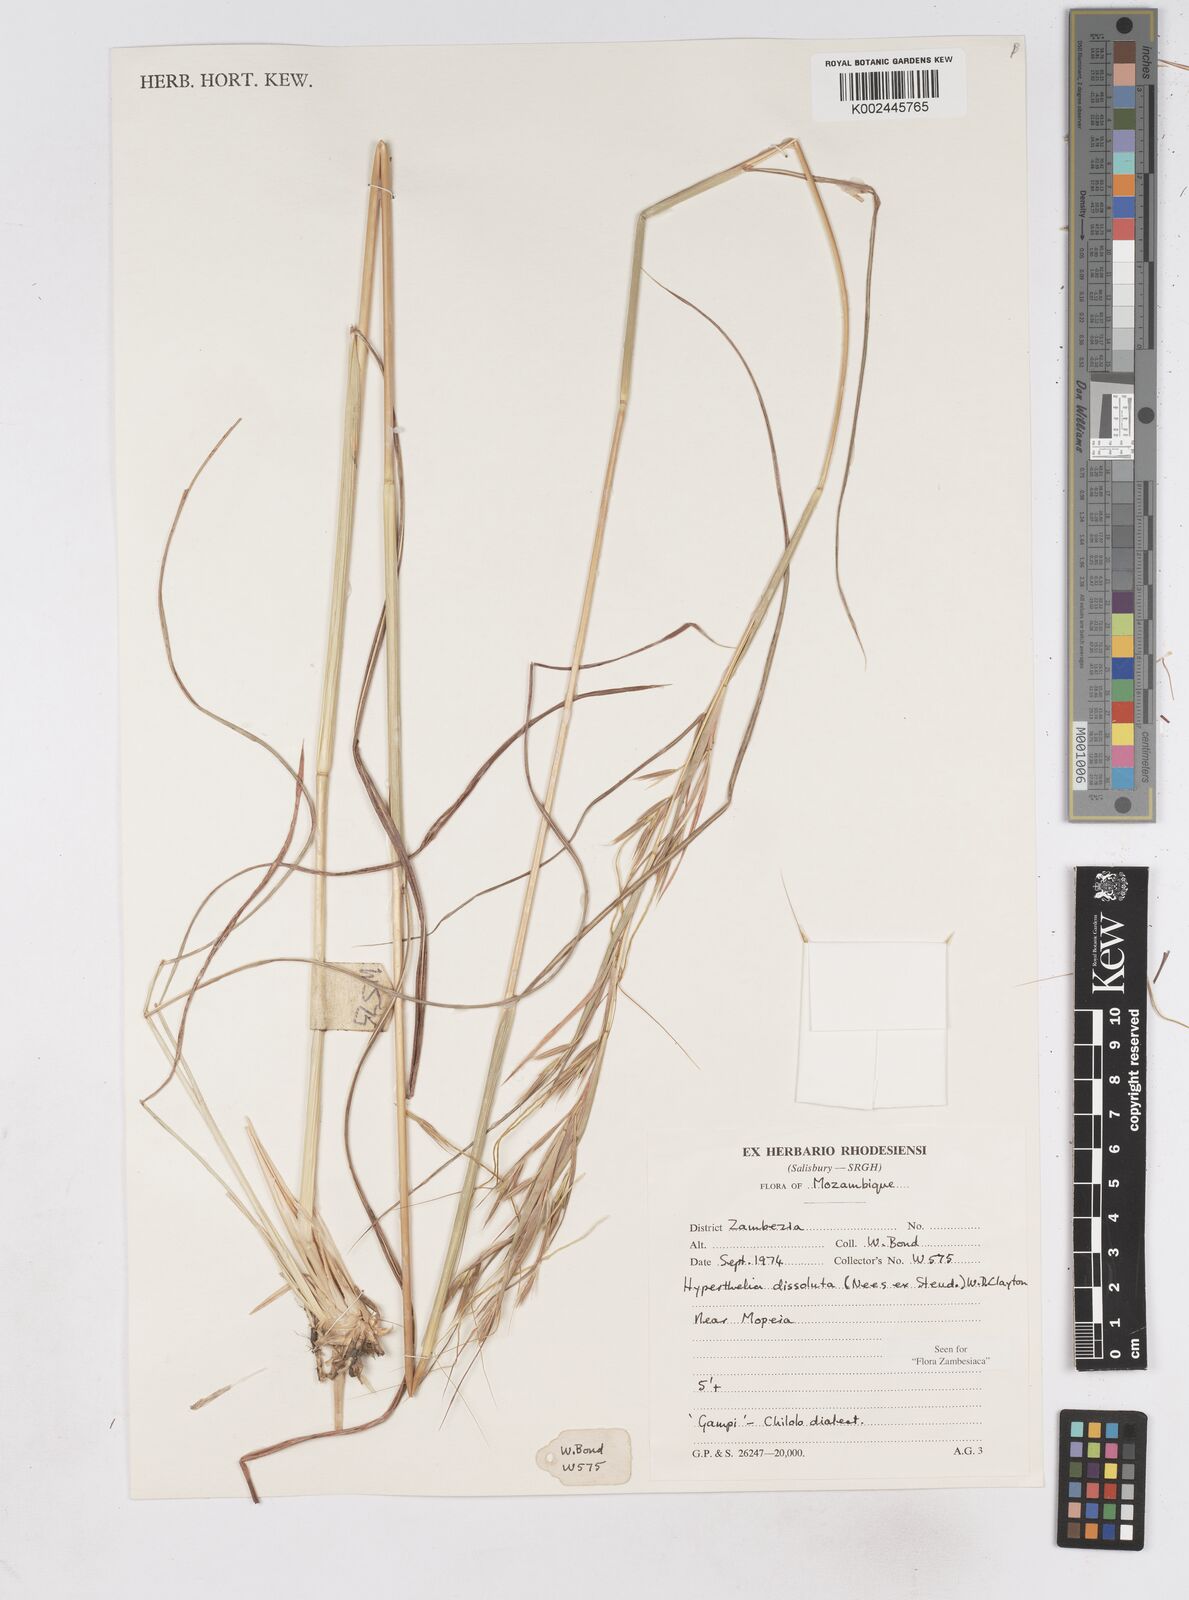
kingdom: Plantae
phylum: Tracheophyta
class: Liliopsida
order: Poales
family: Poaceae
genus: Hyperthelia
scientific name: Hyperthelia dissoluta
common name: Yellow thatching grass
